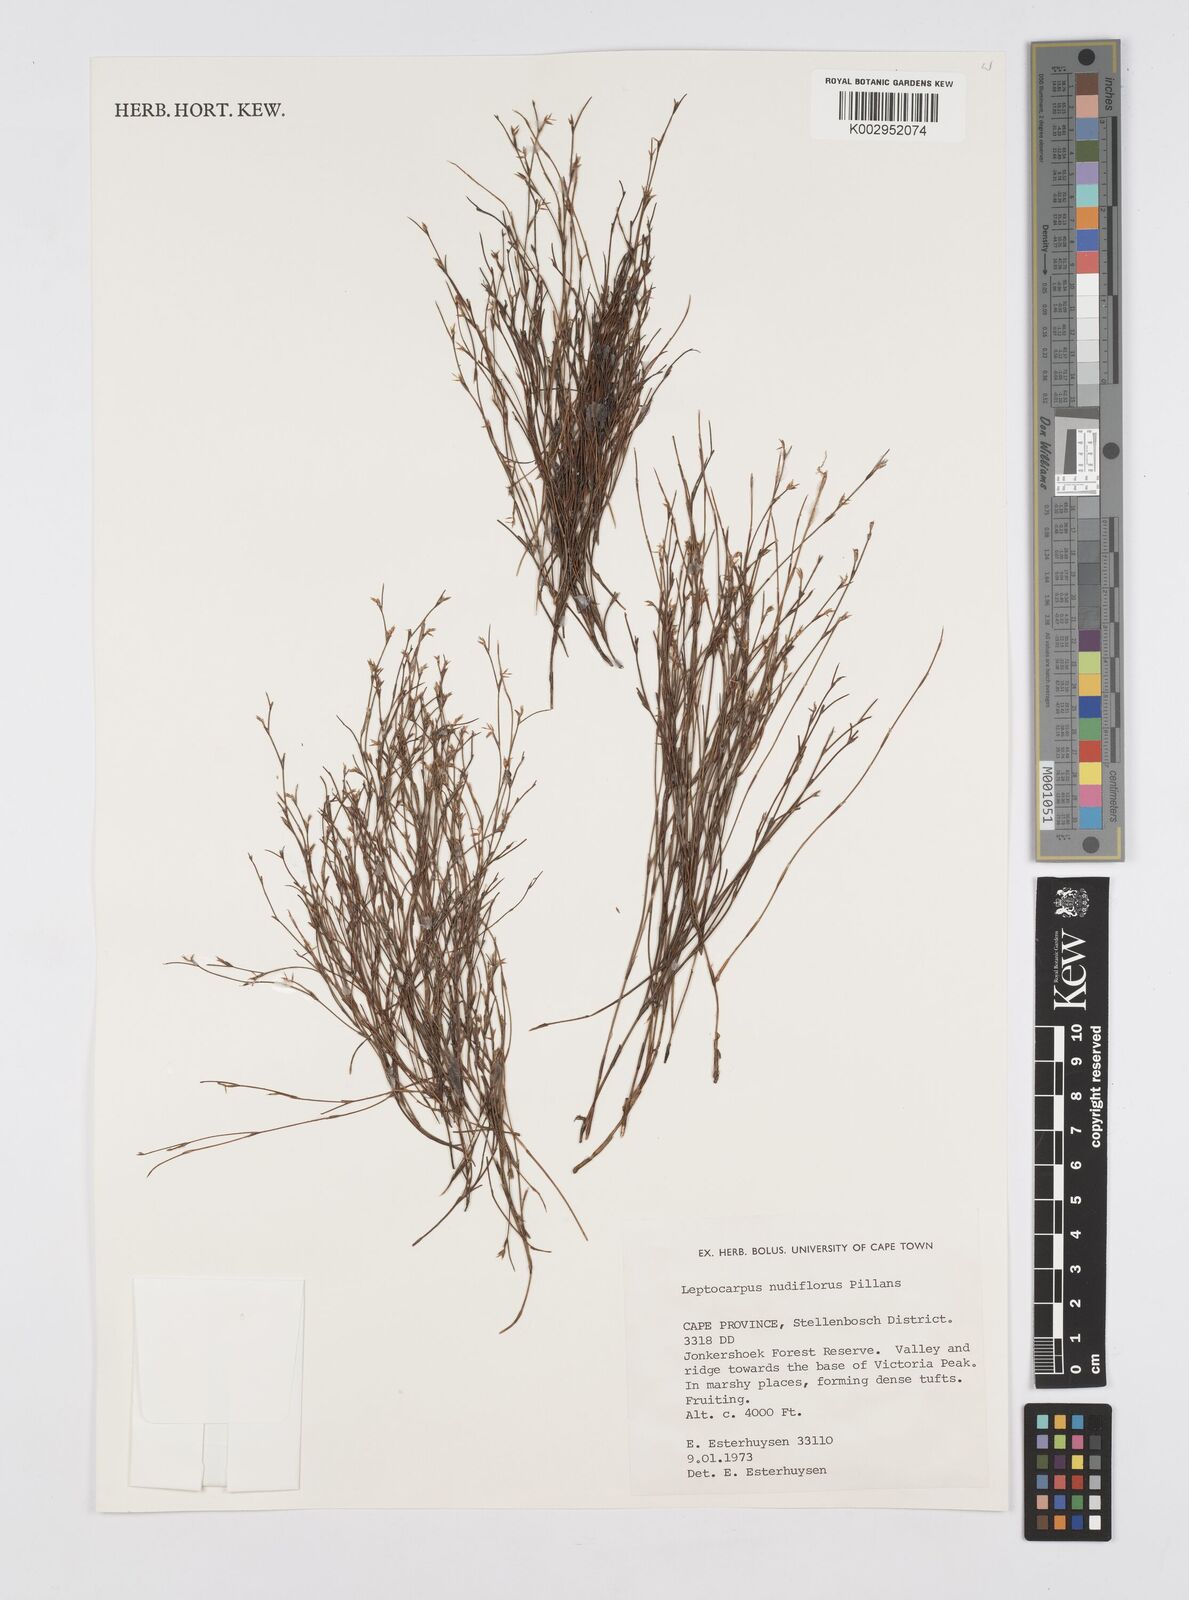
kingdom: Plantae
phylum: Tracheophyta
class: Liliopsida
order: Poales
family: Restionaceae
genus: Restio
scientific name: Restio nudiflorus
